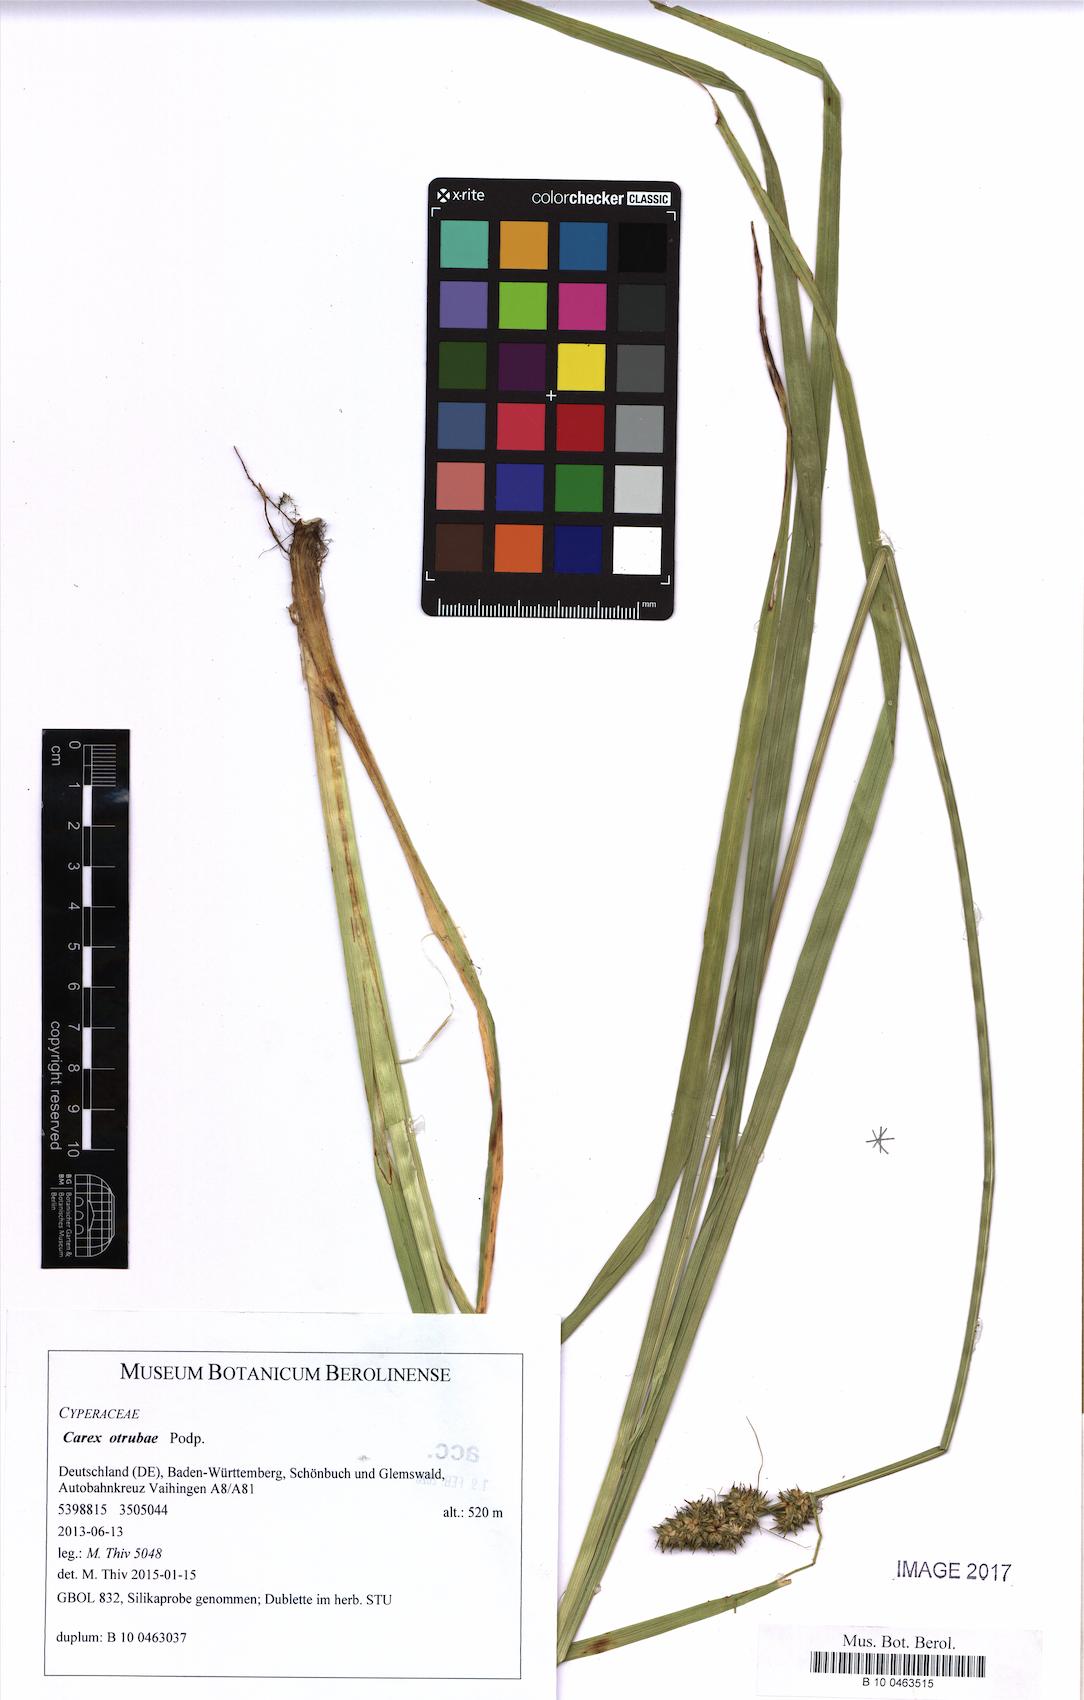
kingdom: Plantae
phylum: Tracheophyta
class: Liliopsida
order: Poales
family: Cyperaceae
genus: Carex
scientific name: Carex otrubae
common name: False fox-sedge
